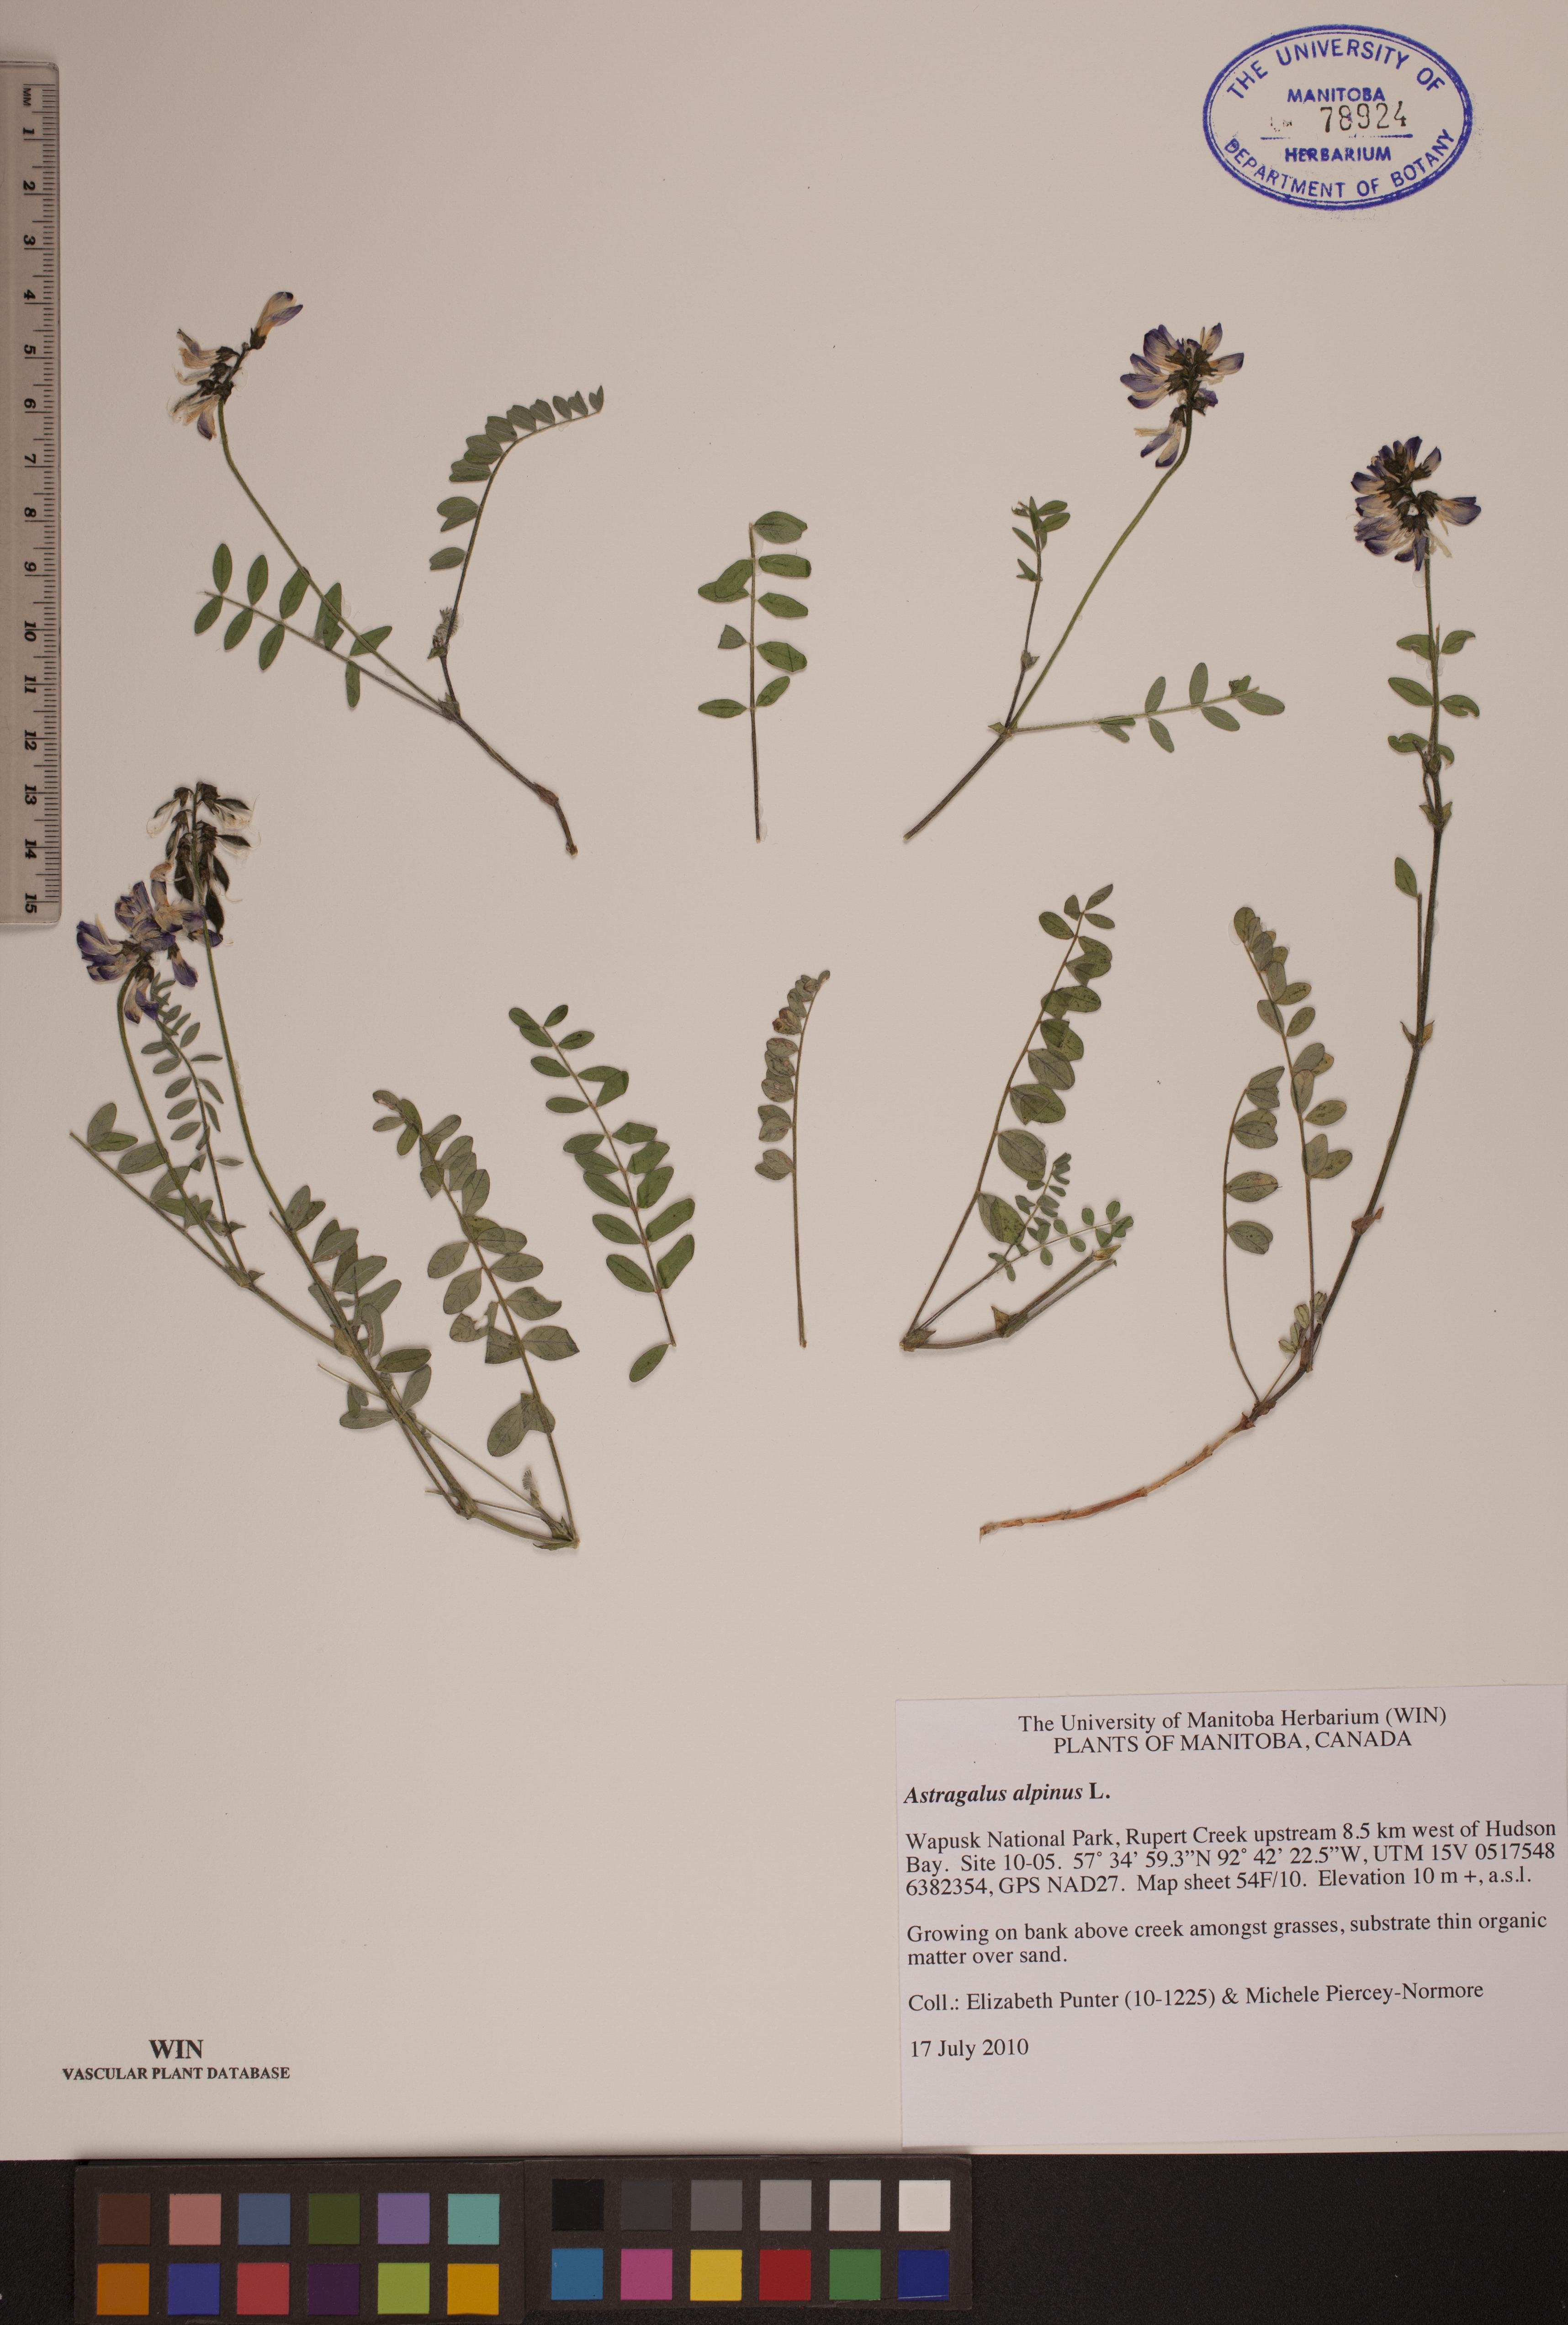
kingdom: Plantae
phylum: Tracheophyta
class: Magnoliopsida
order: Fabales
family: Fabaceae
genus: Astragalus
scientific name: Astragalus alpinus
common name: Alpine milk-vetch
